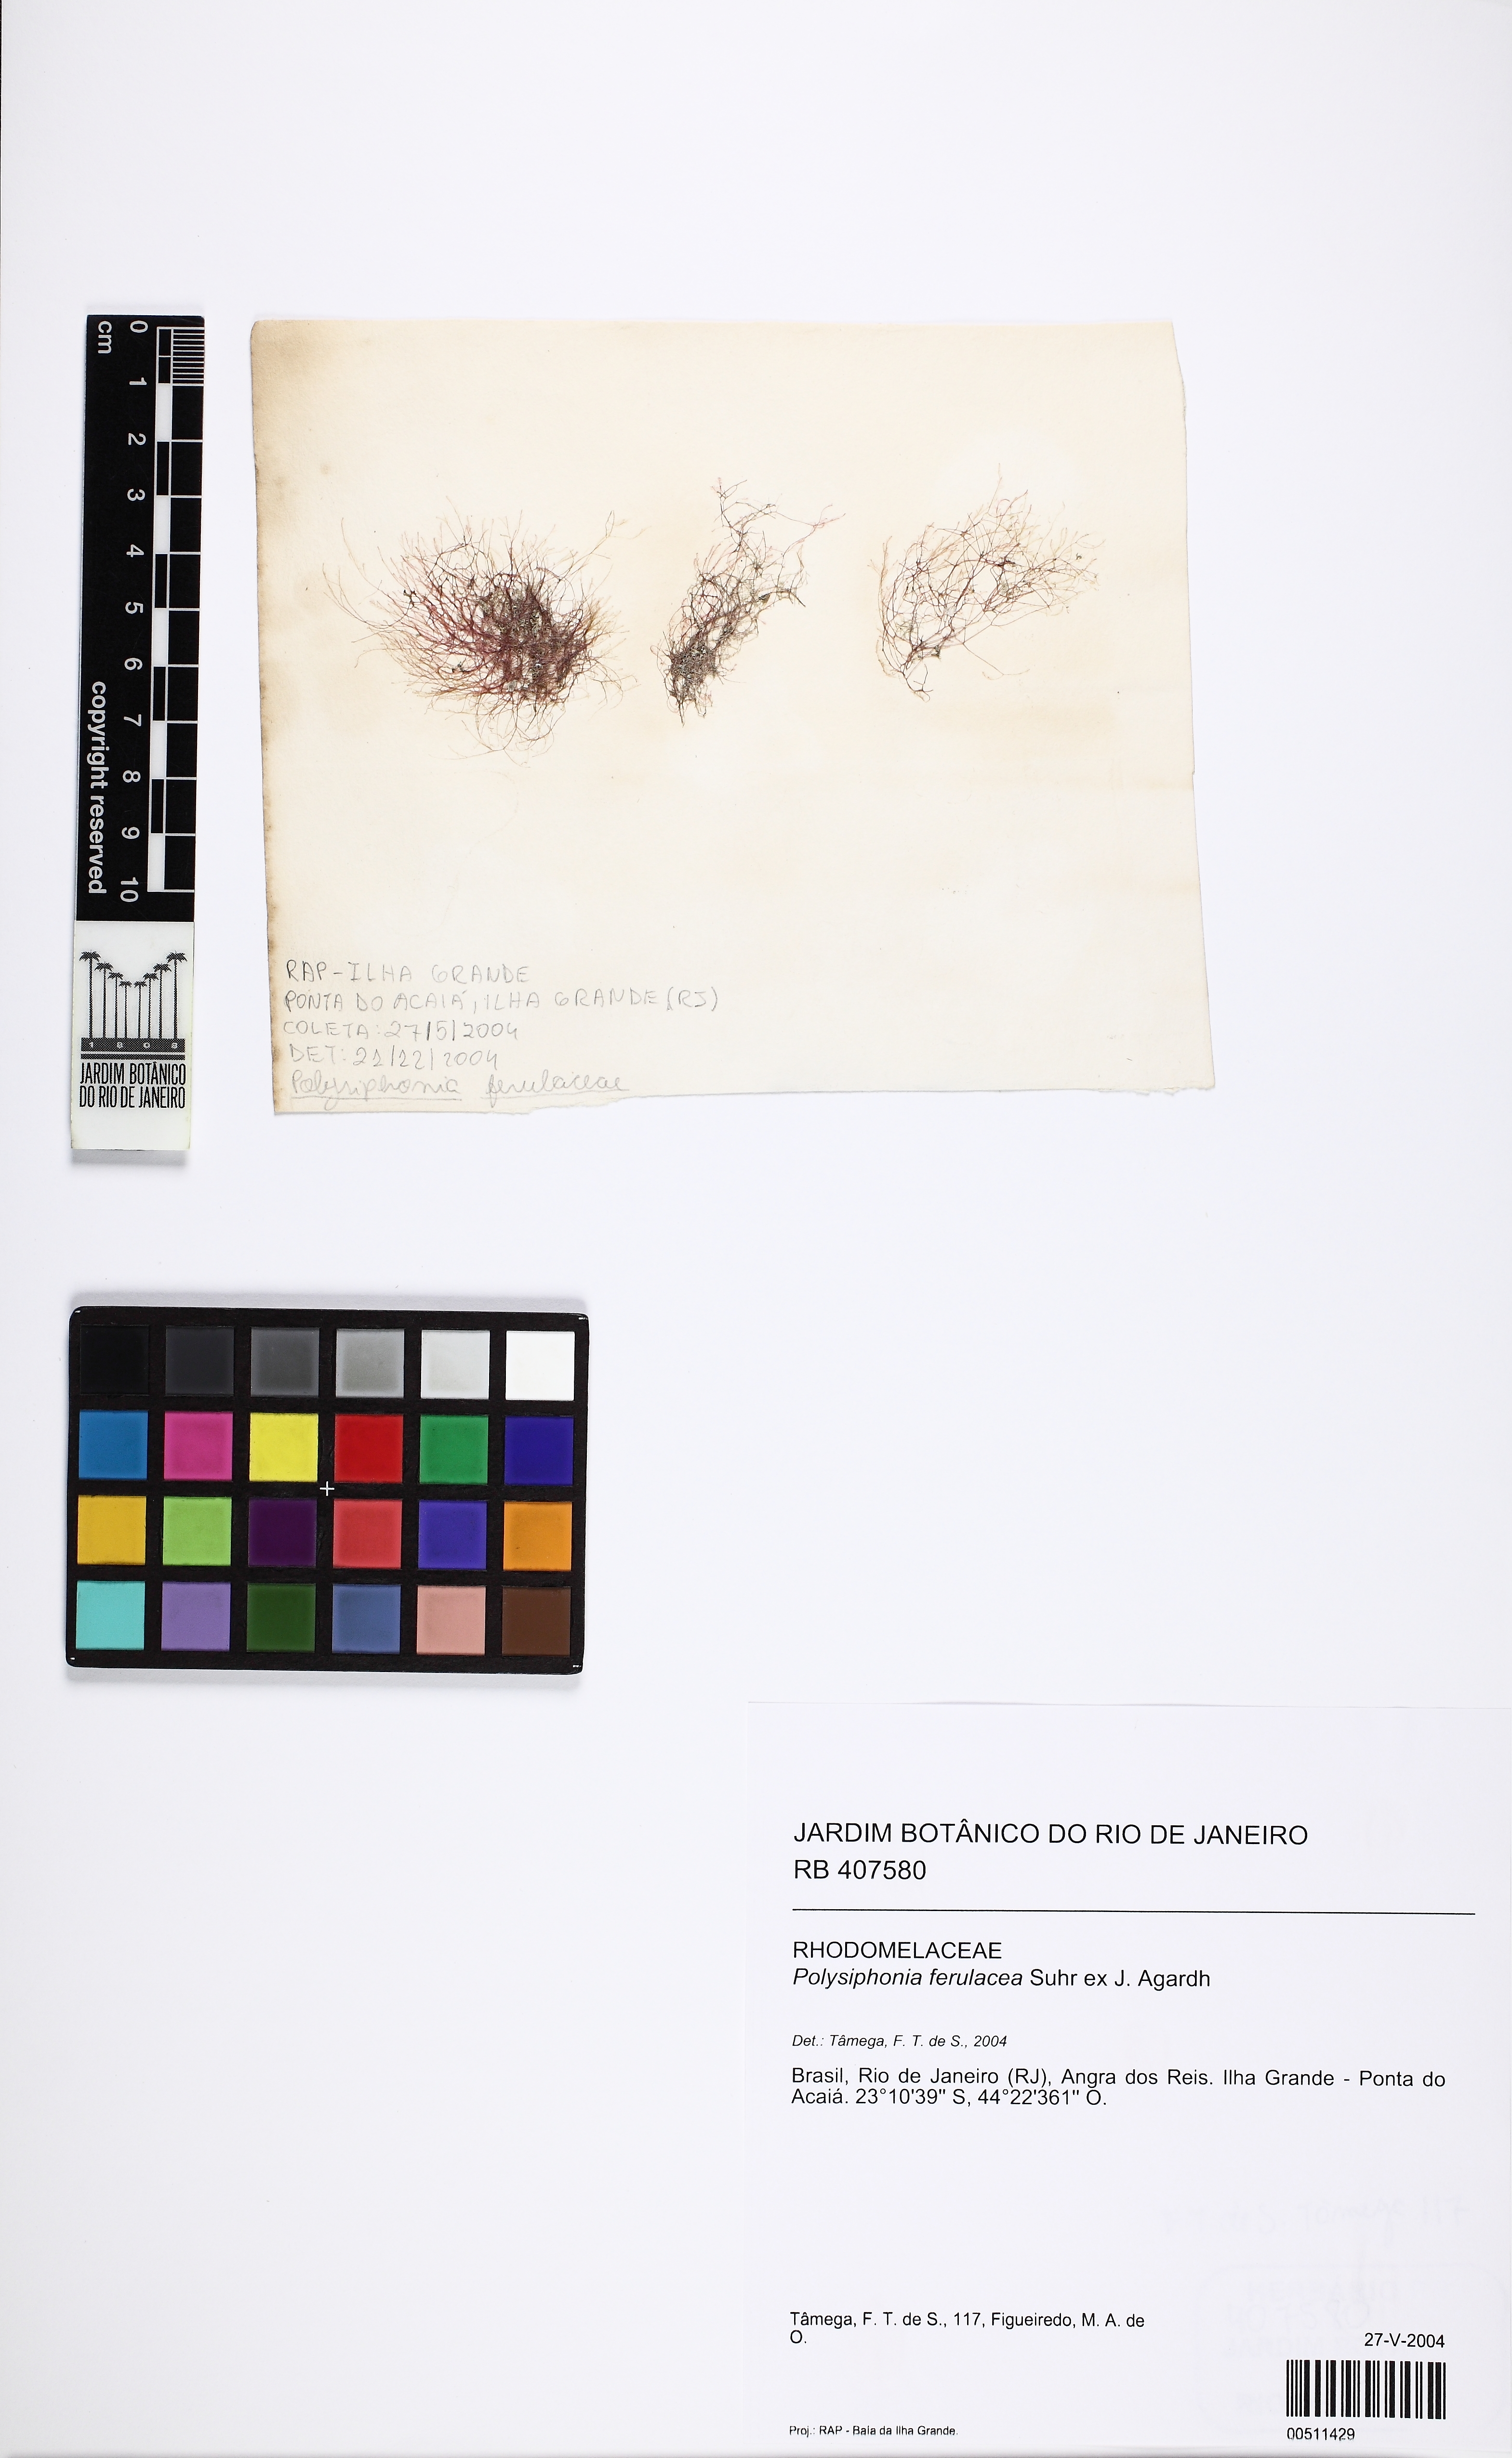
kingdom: Plantae
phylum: Rhodophyta
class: Florideophyceae
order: Ceramiales
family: Rhodomelaceae
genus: Neosiphonia
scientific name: Neosiphonia ferulacea
